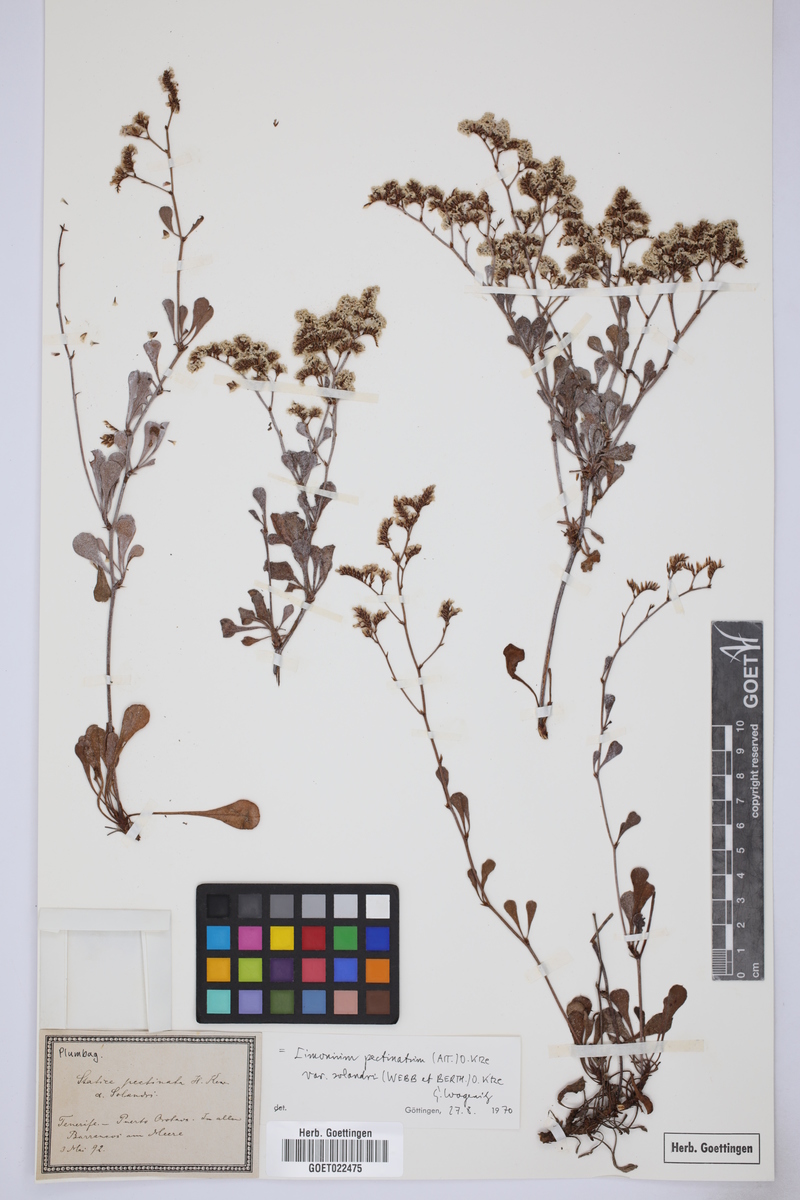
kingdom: Plantae
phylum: Tracheophyta
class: Magnoliopsida
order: Caryophyllales
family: Plumbaginaceae
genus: Limonium
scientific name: Limonium pectinatum
